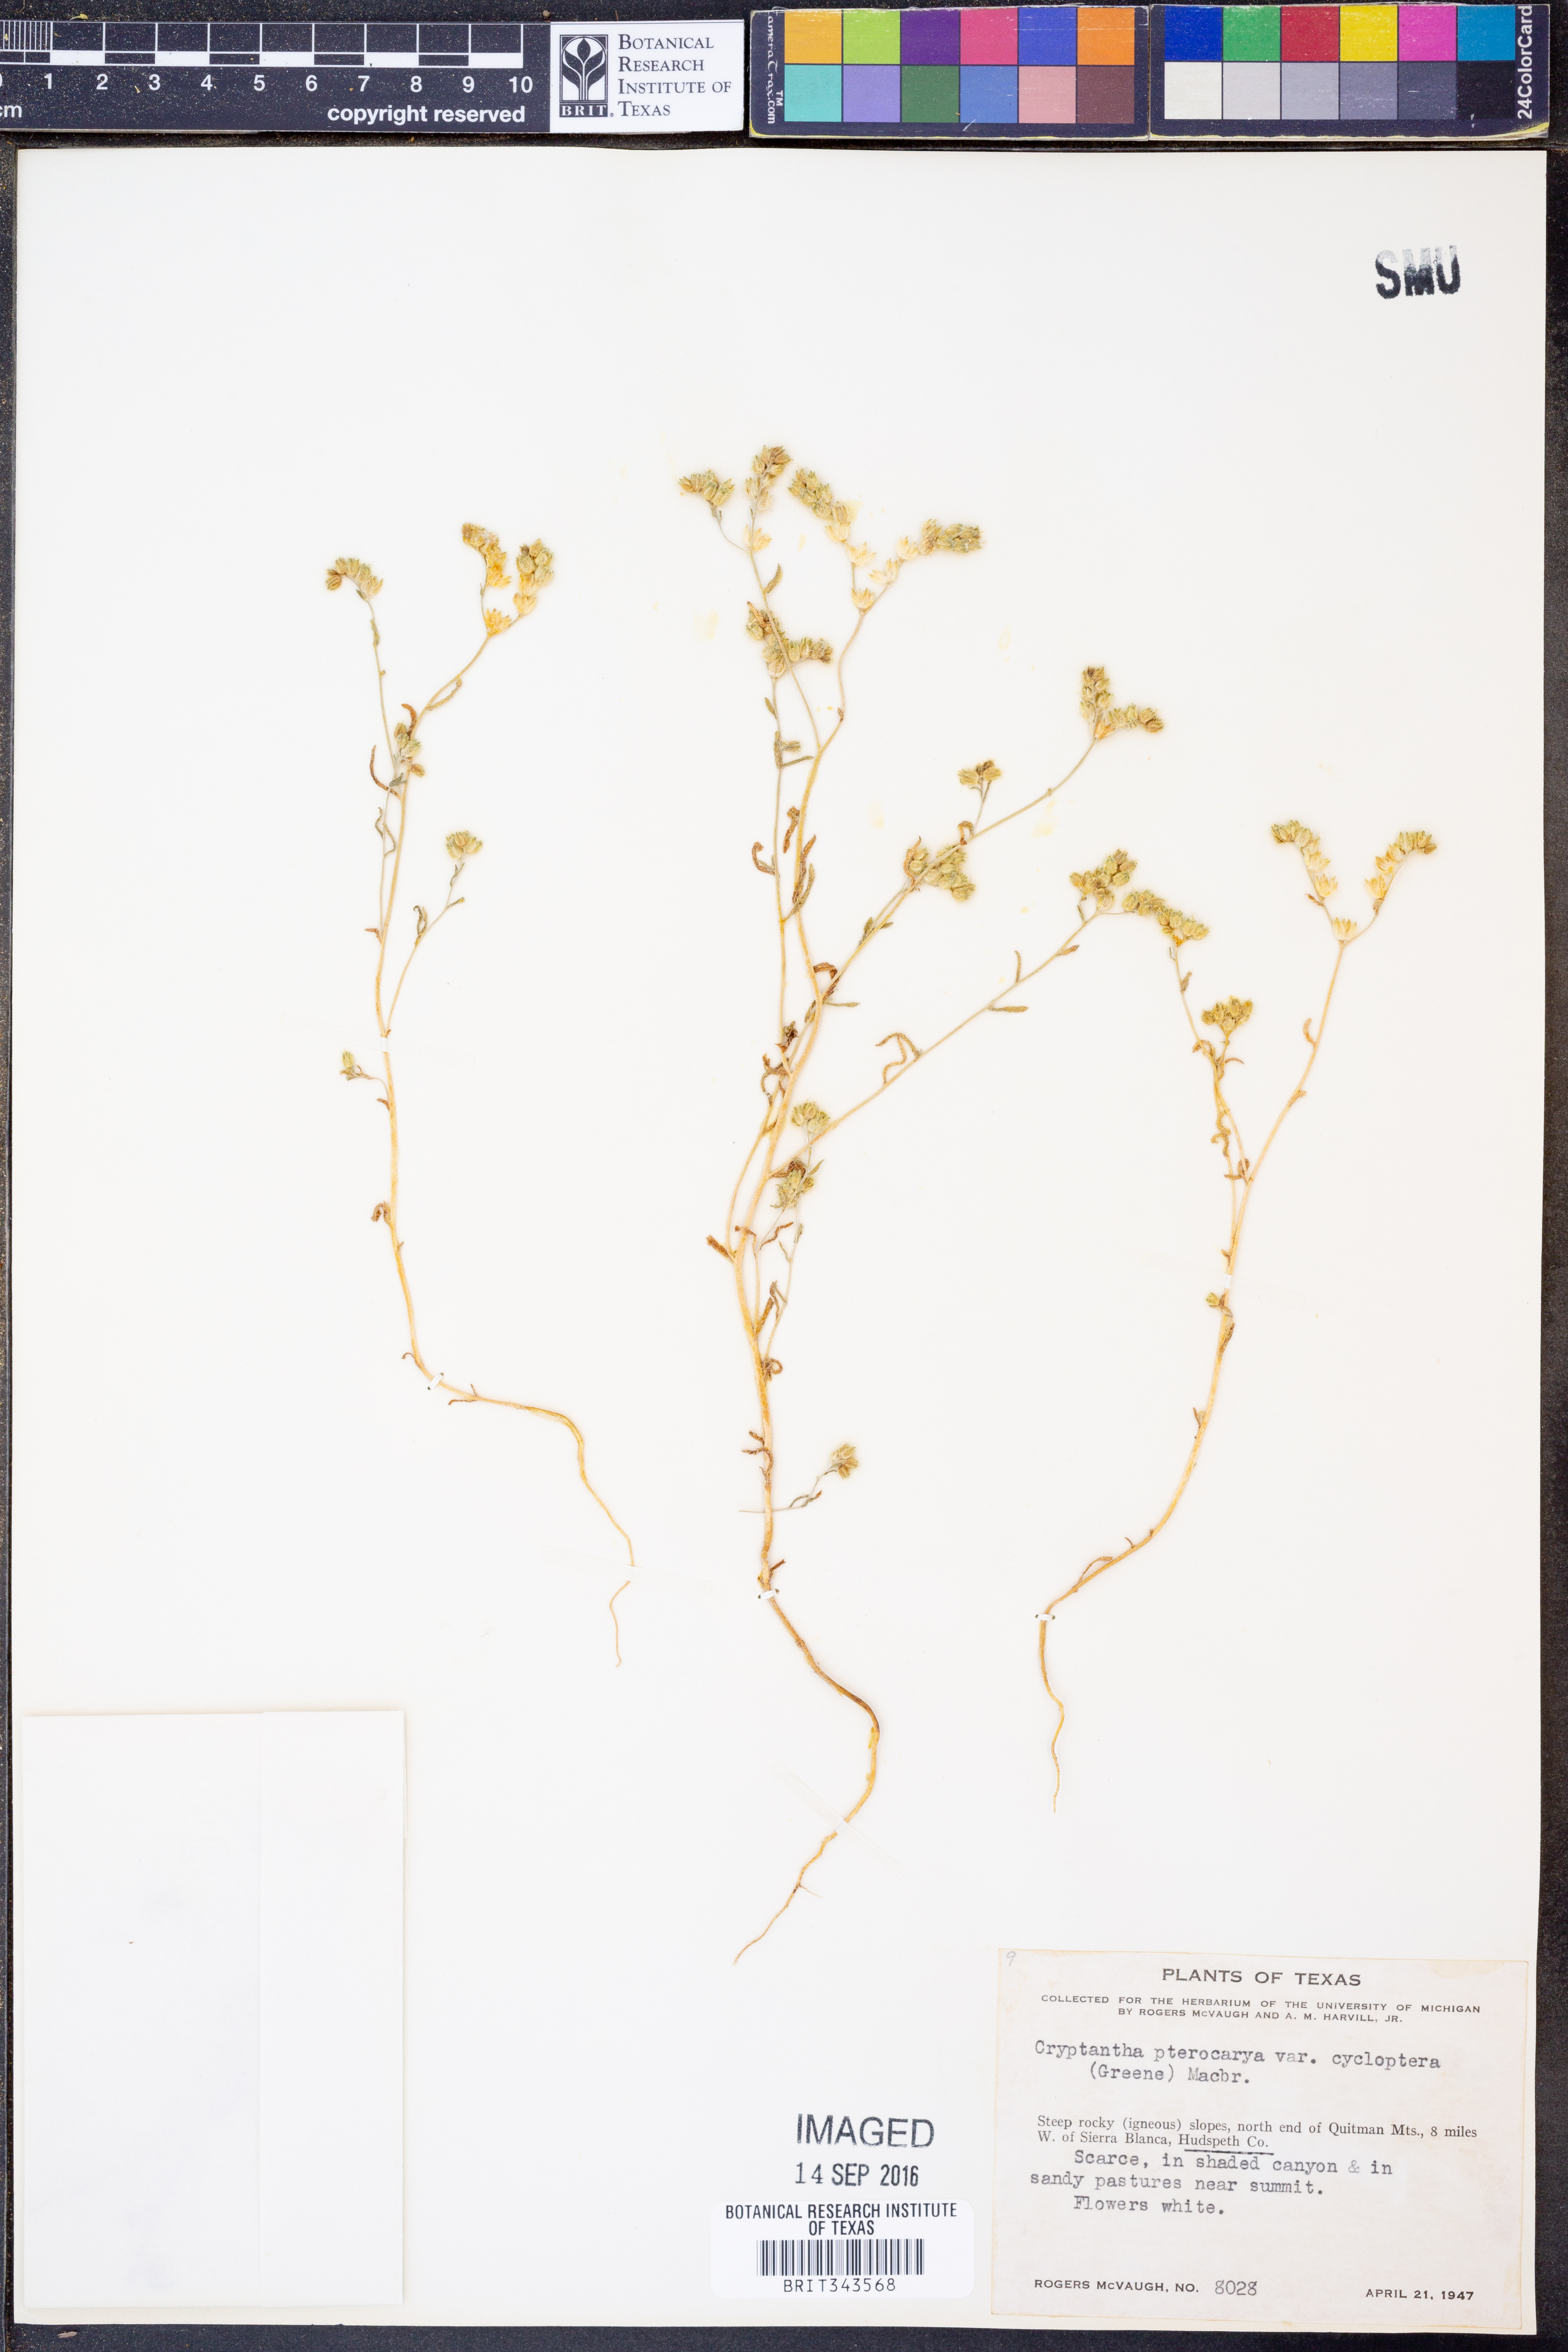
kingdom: Plantae
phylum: Tracheophyta
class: Magnoliopsida
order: Boraginales
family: Boraginaceae
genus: Cryptantha
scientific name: Cryptantha cycloptera
